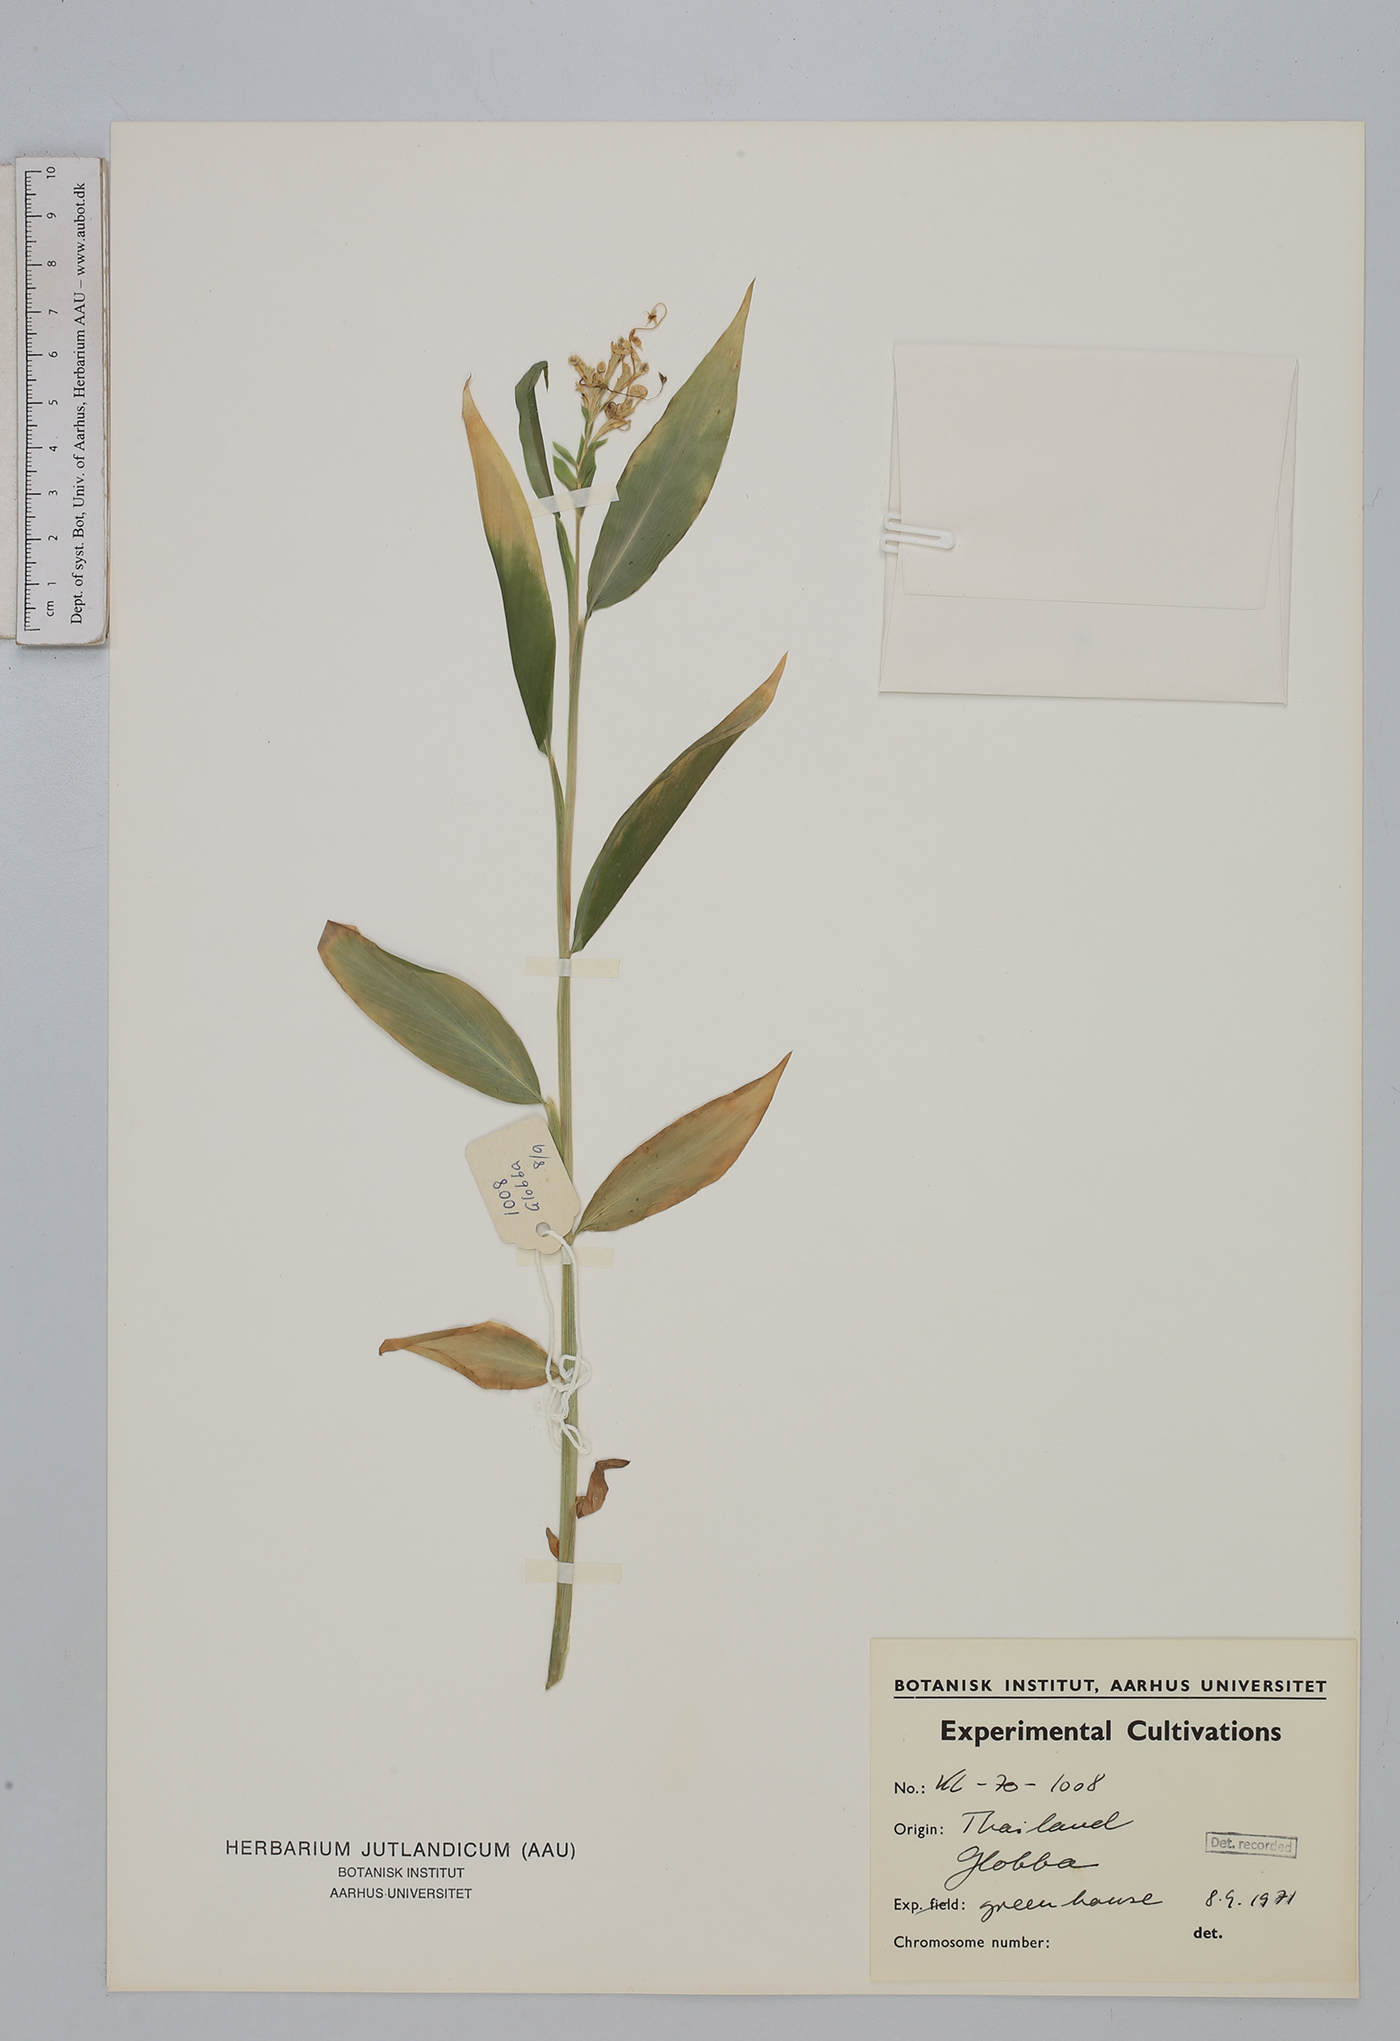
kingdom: Plantae
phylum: Tracheophyta
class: Liliopsida
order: Zingiberales
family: Zingiberaceae
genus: Globba
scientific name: Globba
